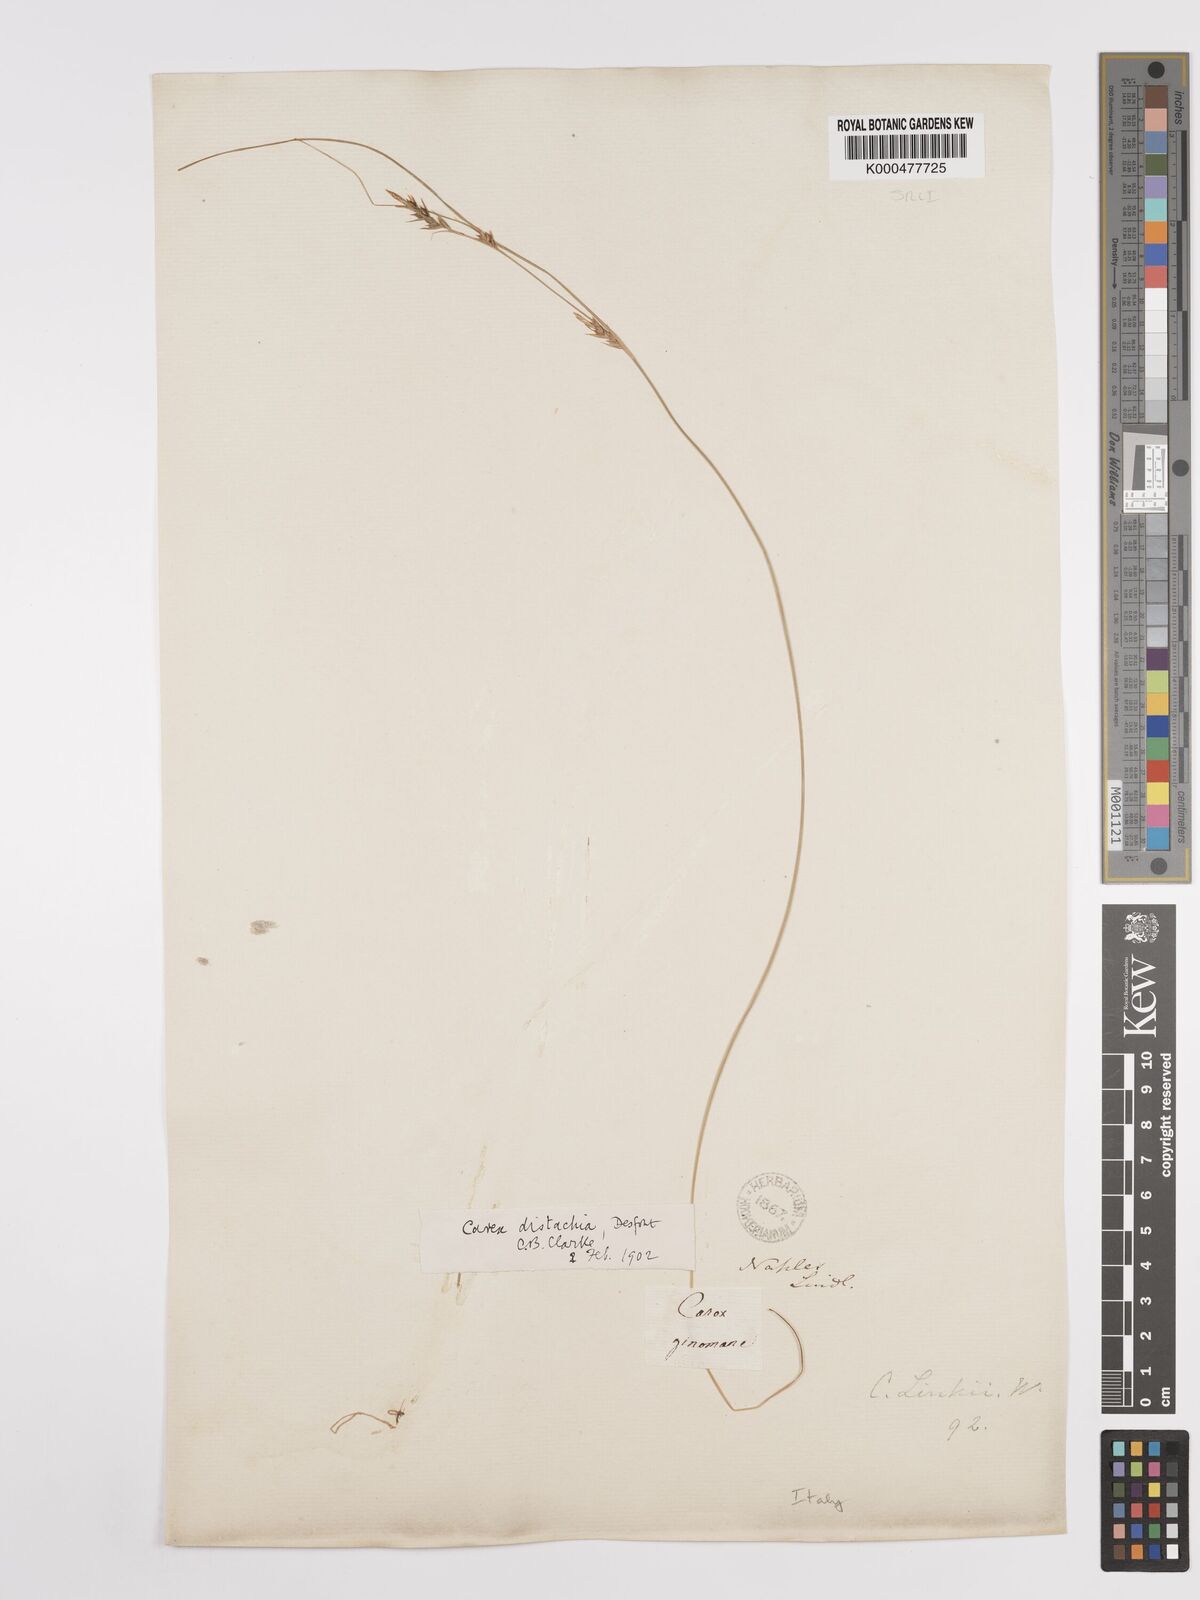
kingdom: Plantae
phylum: Tracheophyta
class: Liliopsida
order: Poales
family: Cyperaceae
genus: Carex
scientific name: Carex distachya
